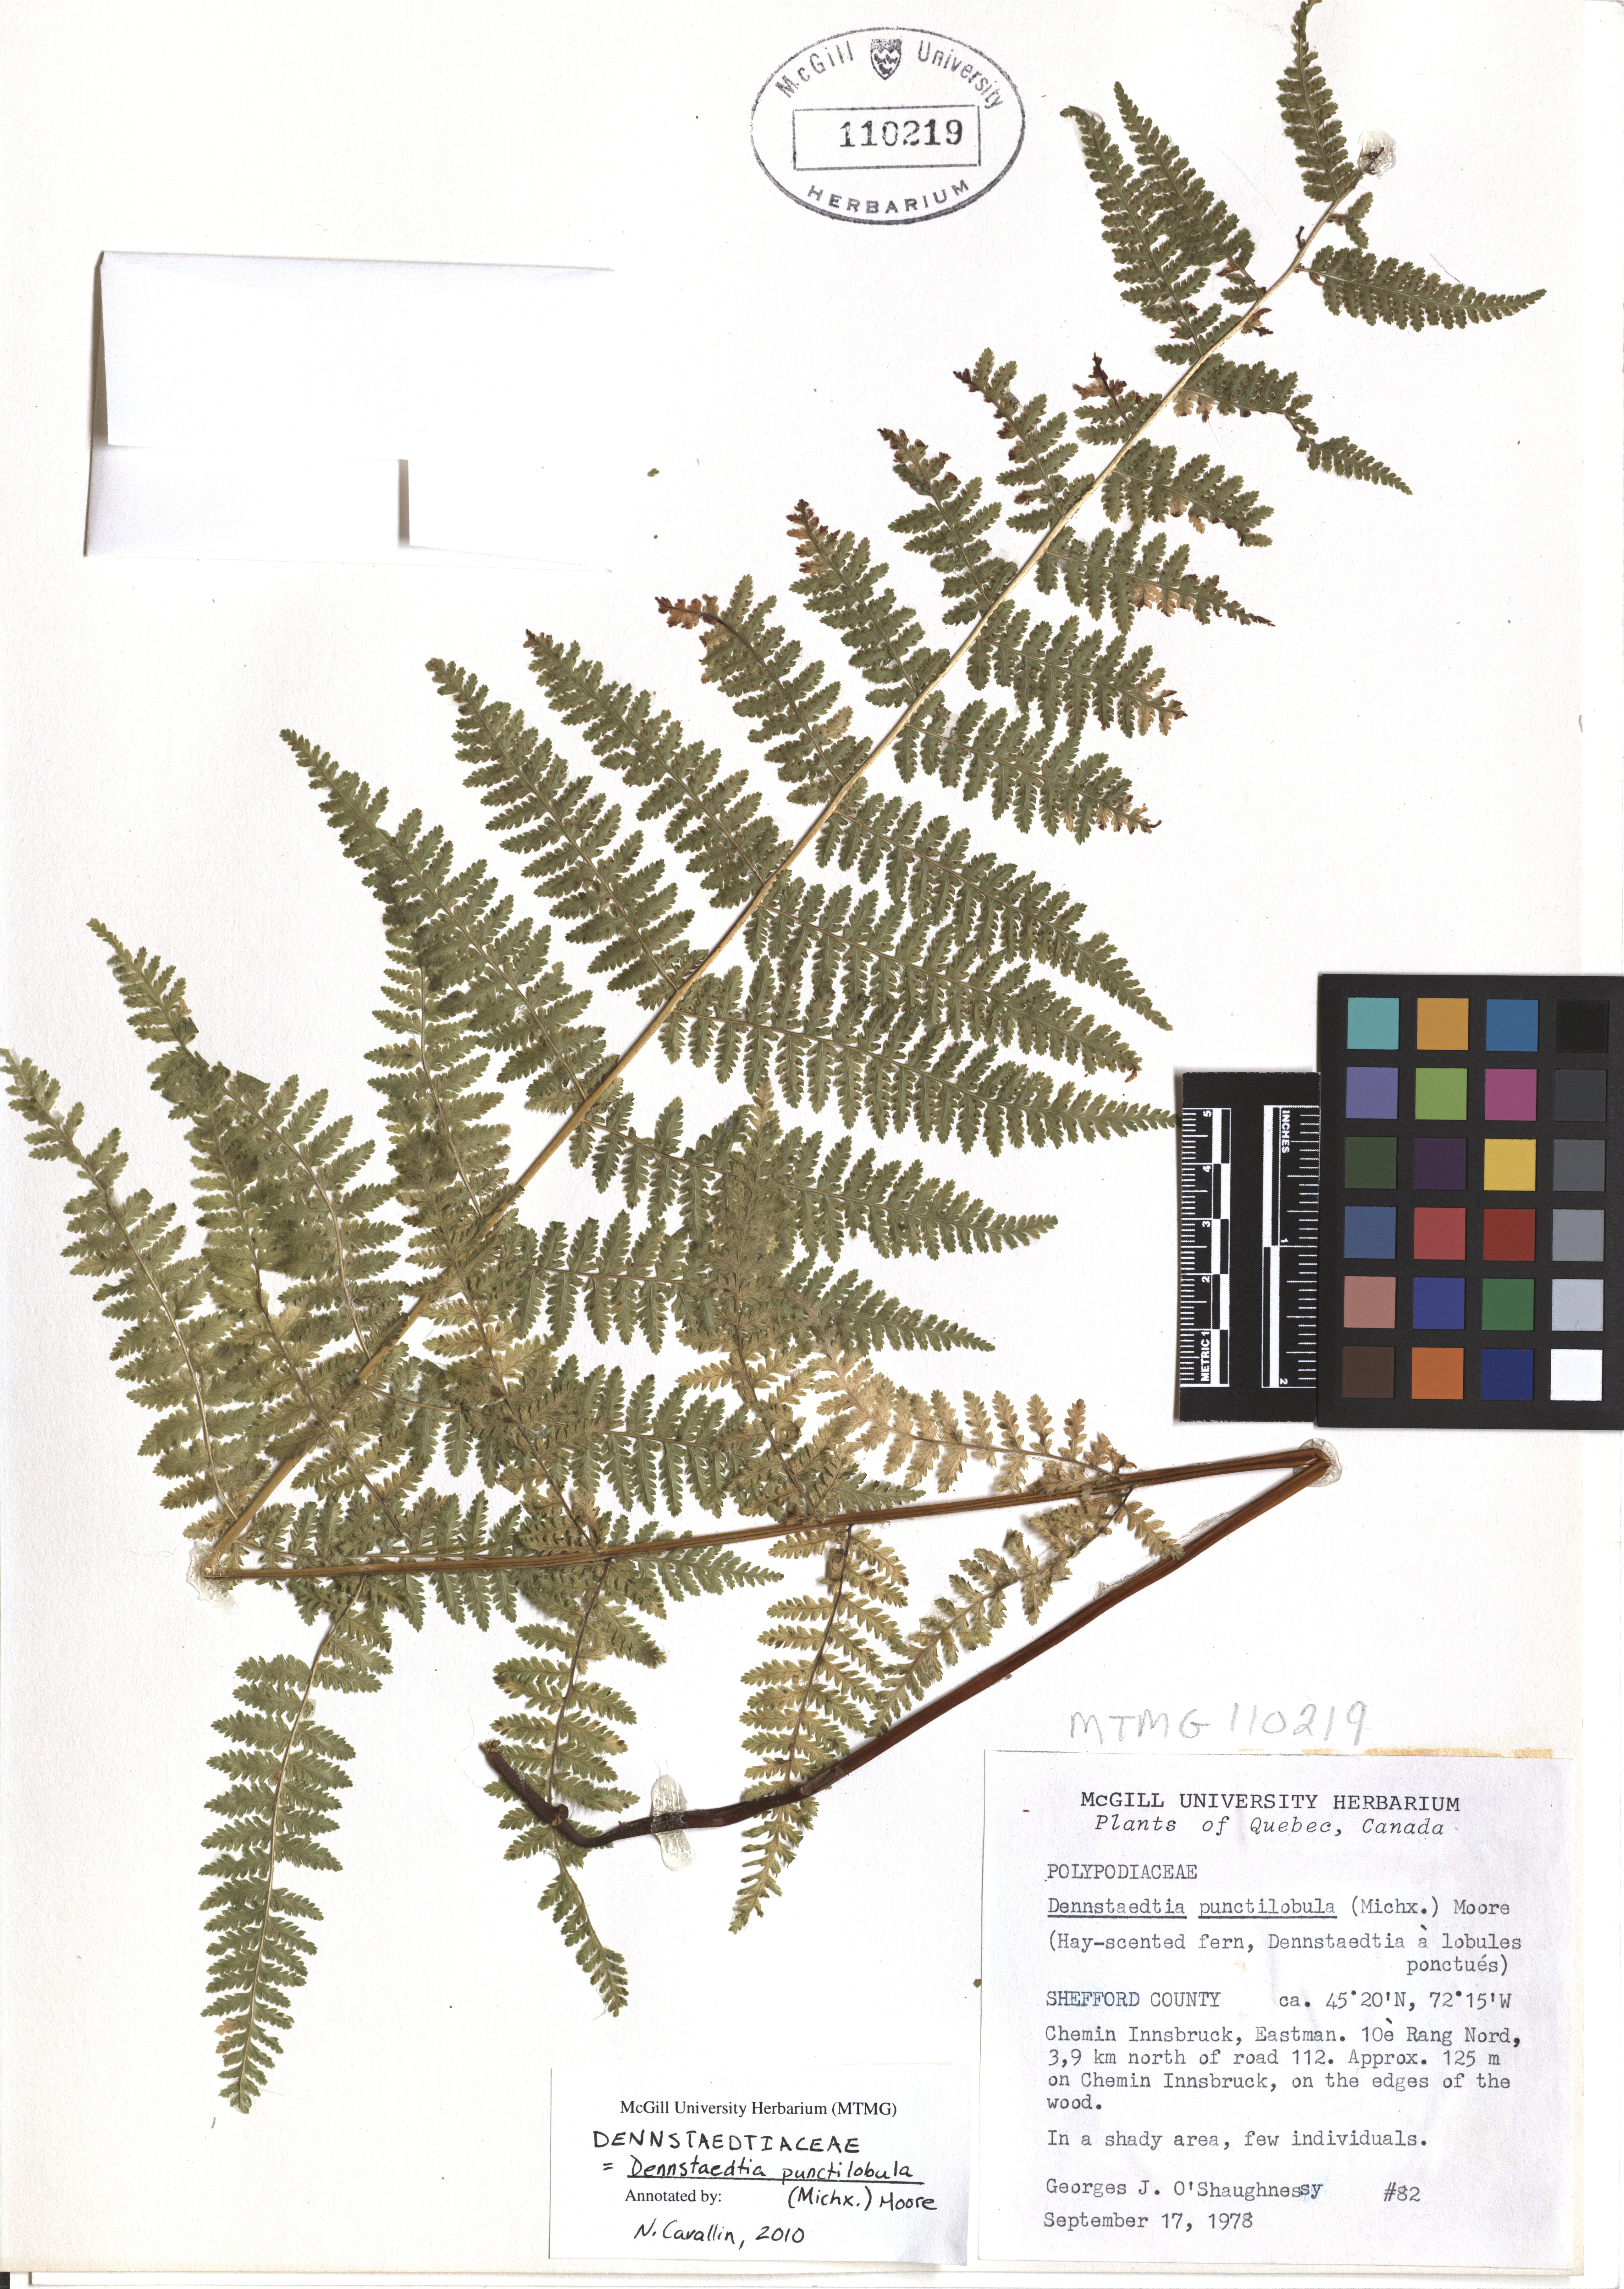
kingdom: Plantae
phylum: Tracheophyta
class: Polypodiopsida
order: Polypodiales
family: Dennstaedtiaceae
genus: Sitobolium
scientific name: Sitobolium punctilobum
